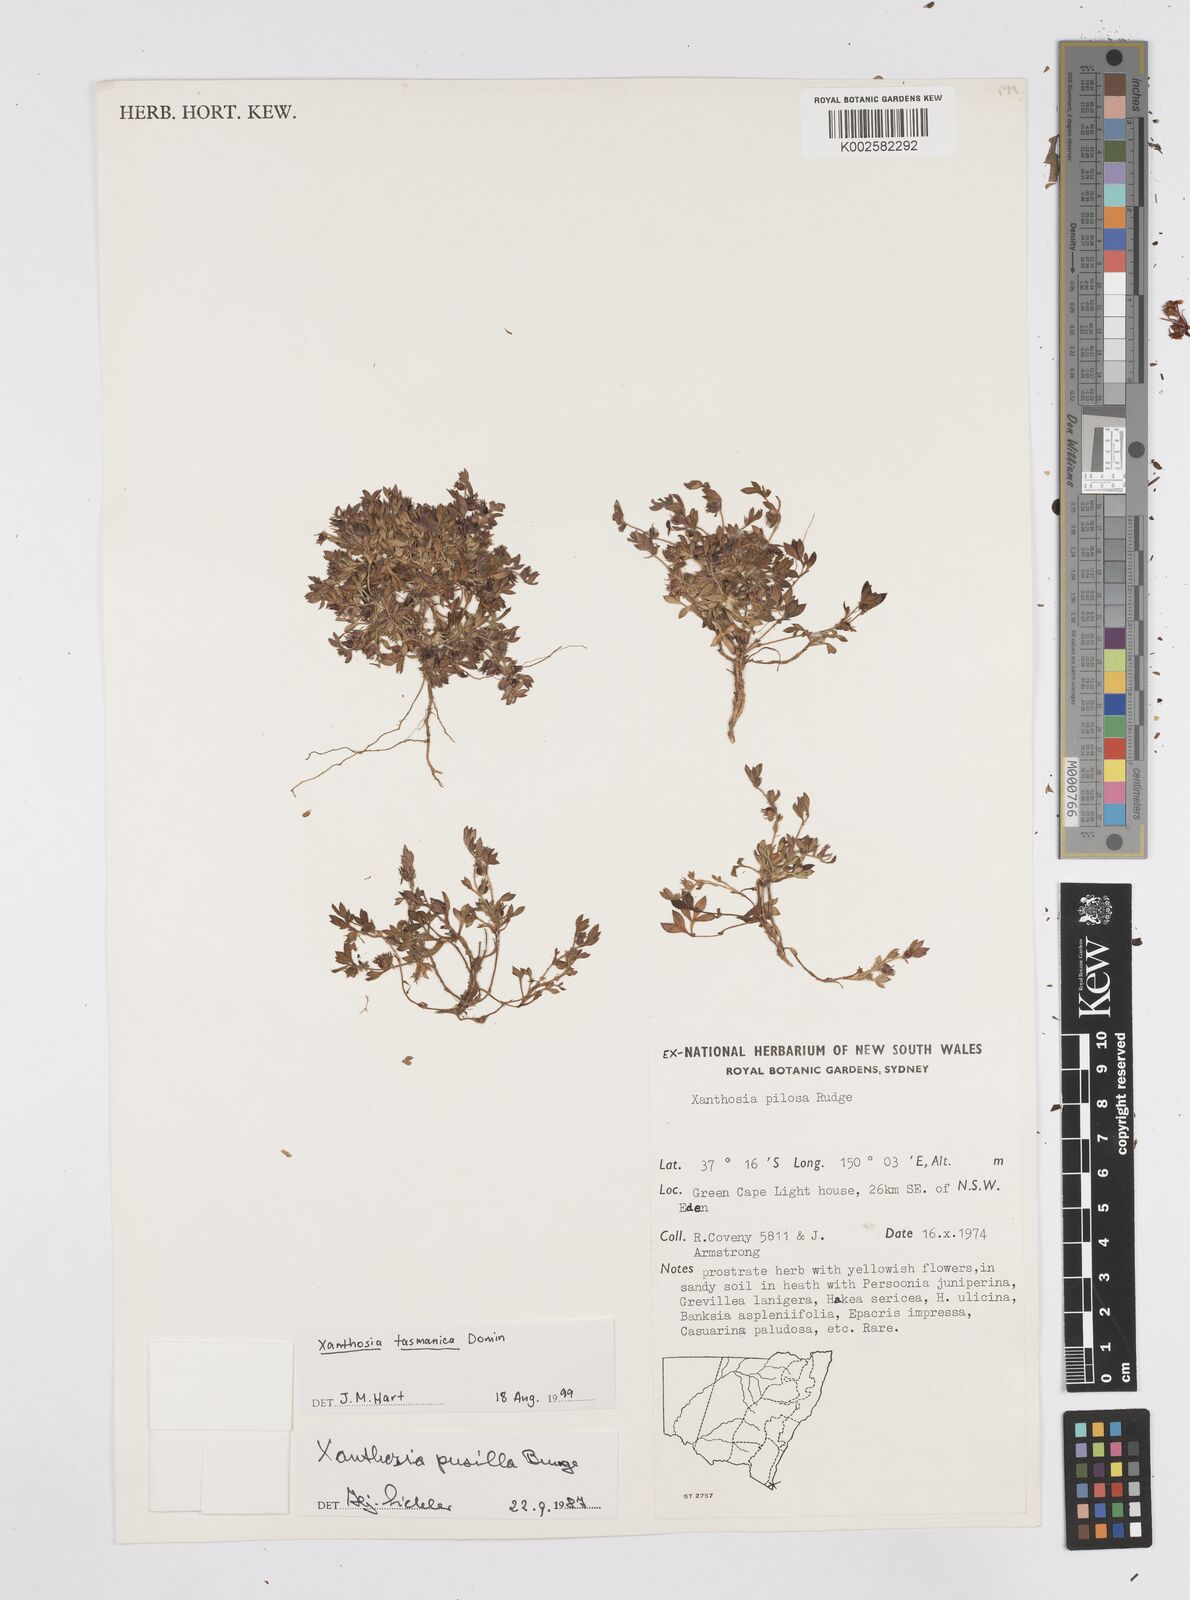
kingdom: Plantae
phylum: Tracheophyta
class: Magnoliopsida
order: Apiales
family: Apiaceae
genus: Xanthosia
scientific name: Xanthosia tasmanica
